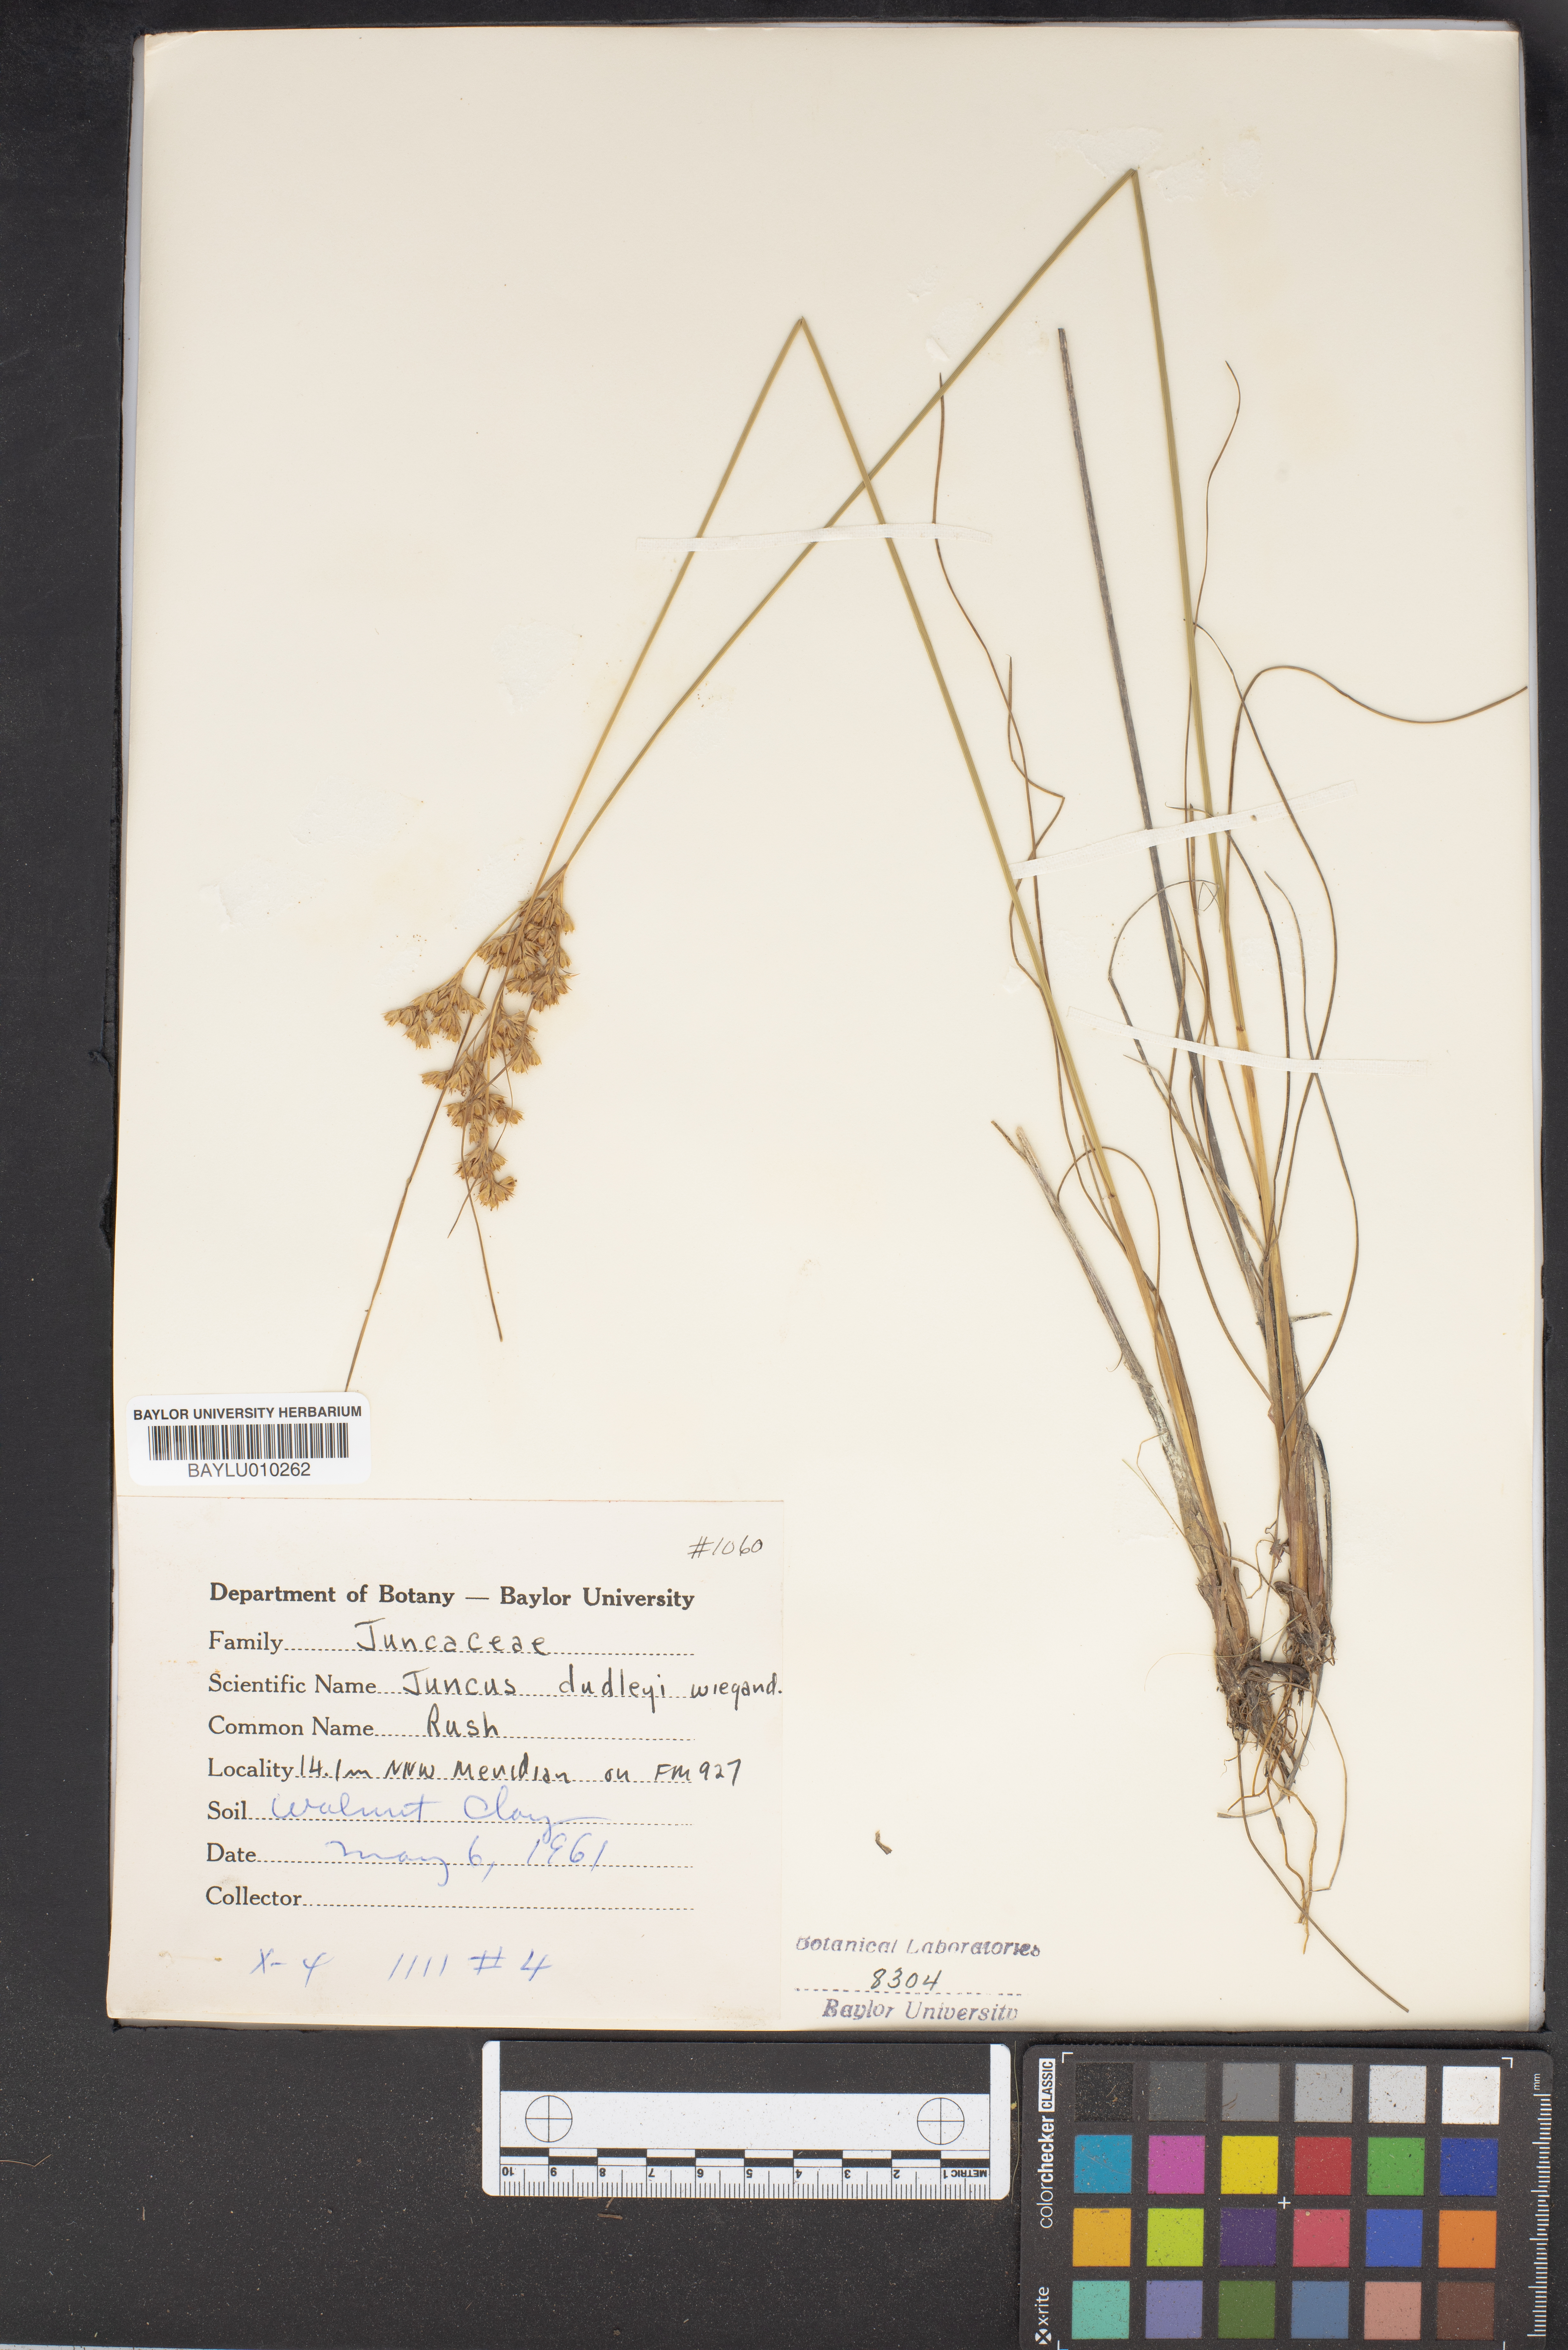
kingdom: Plantae
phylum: Tracheophyta
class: Liliopsida
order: Poales
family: Juncaceae
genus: Juncus
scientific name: Juncus dudleyi
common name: Dudley's rush
